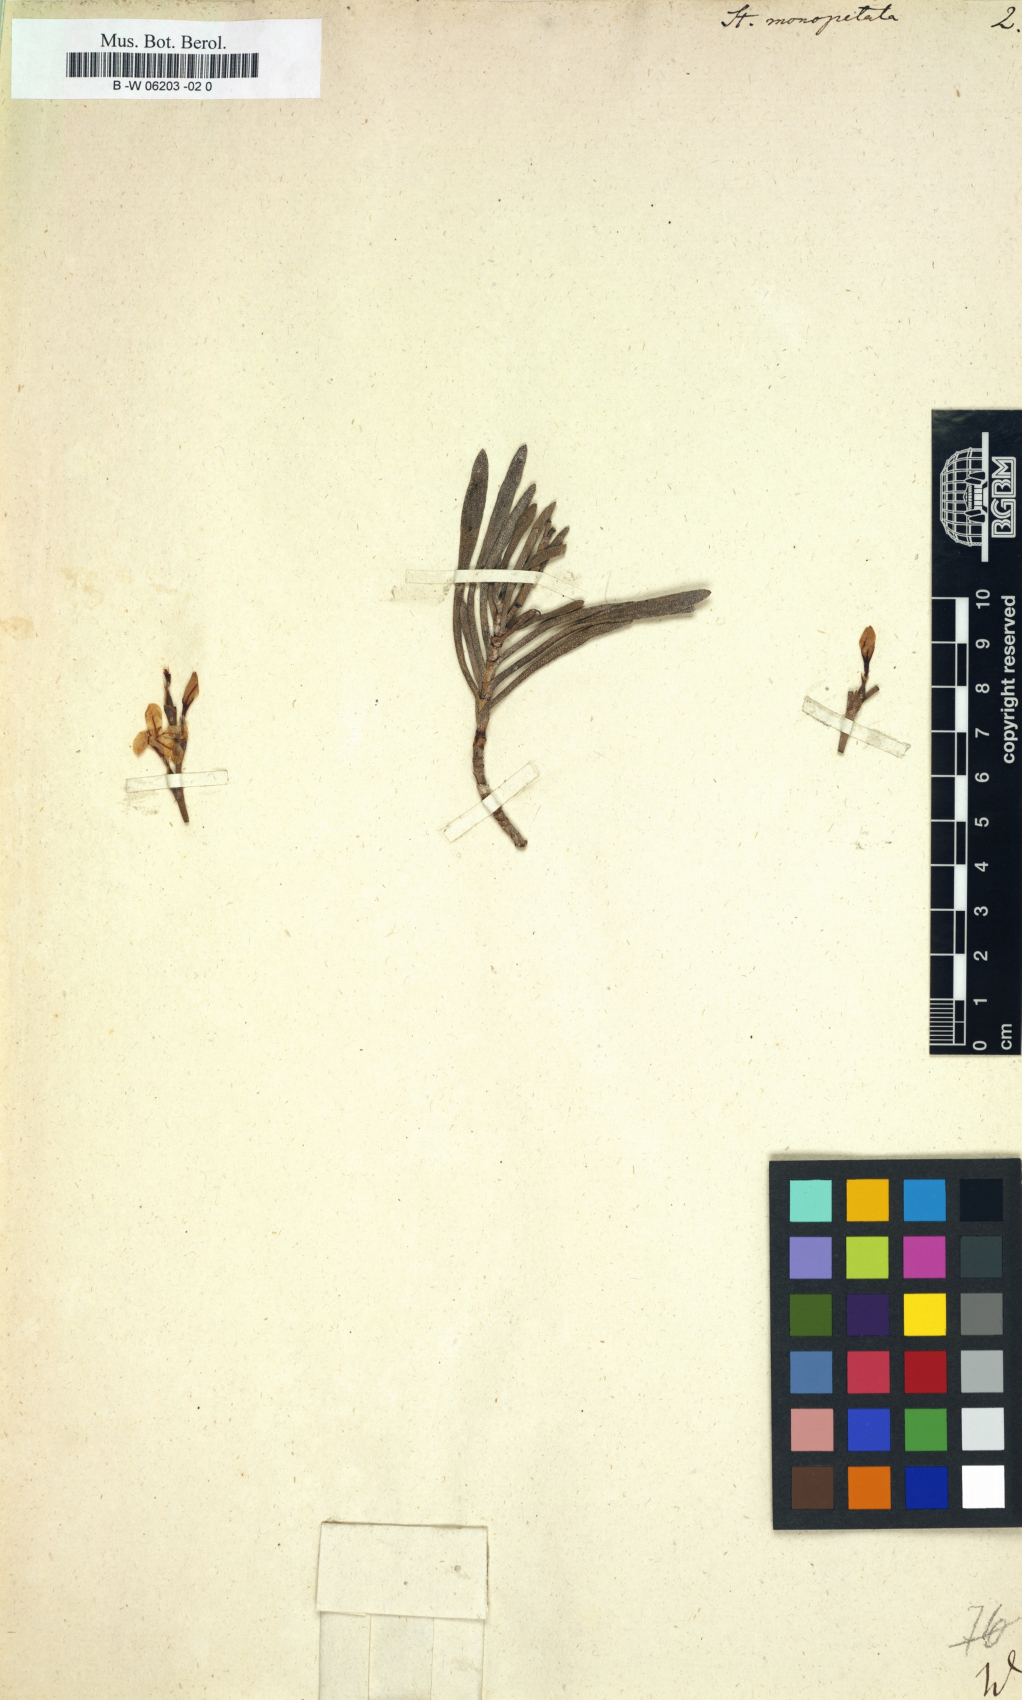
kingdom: Plantae
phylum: Tracheophyta
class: Magnoliopsida
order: Caryophyllales
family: Plumbaginaceae
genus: Limoniastrum
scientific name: Limoniastrum monopetalum
